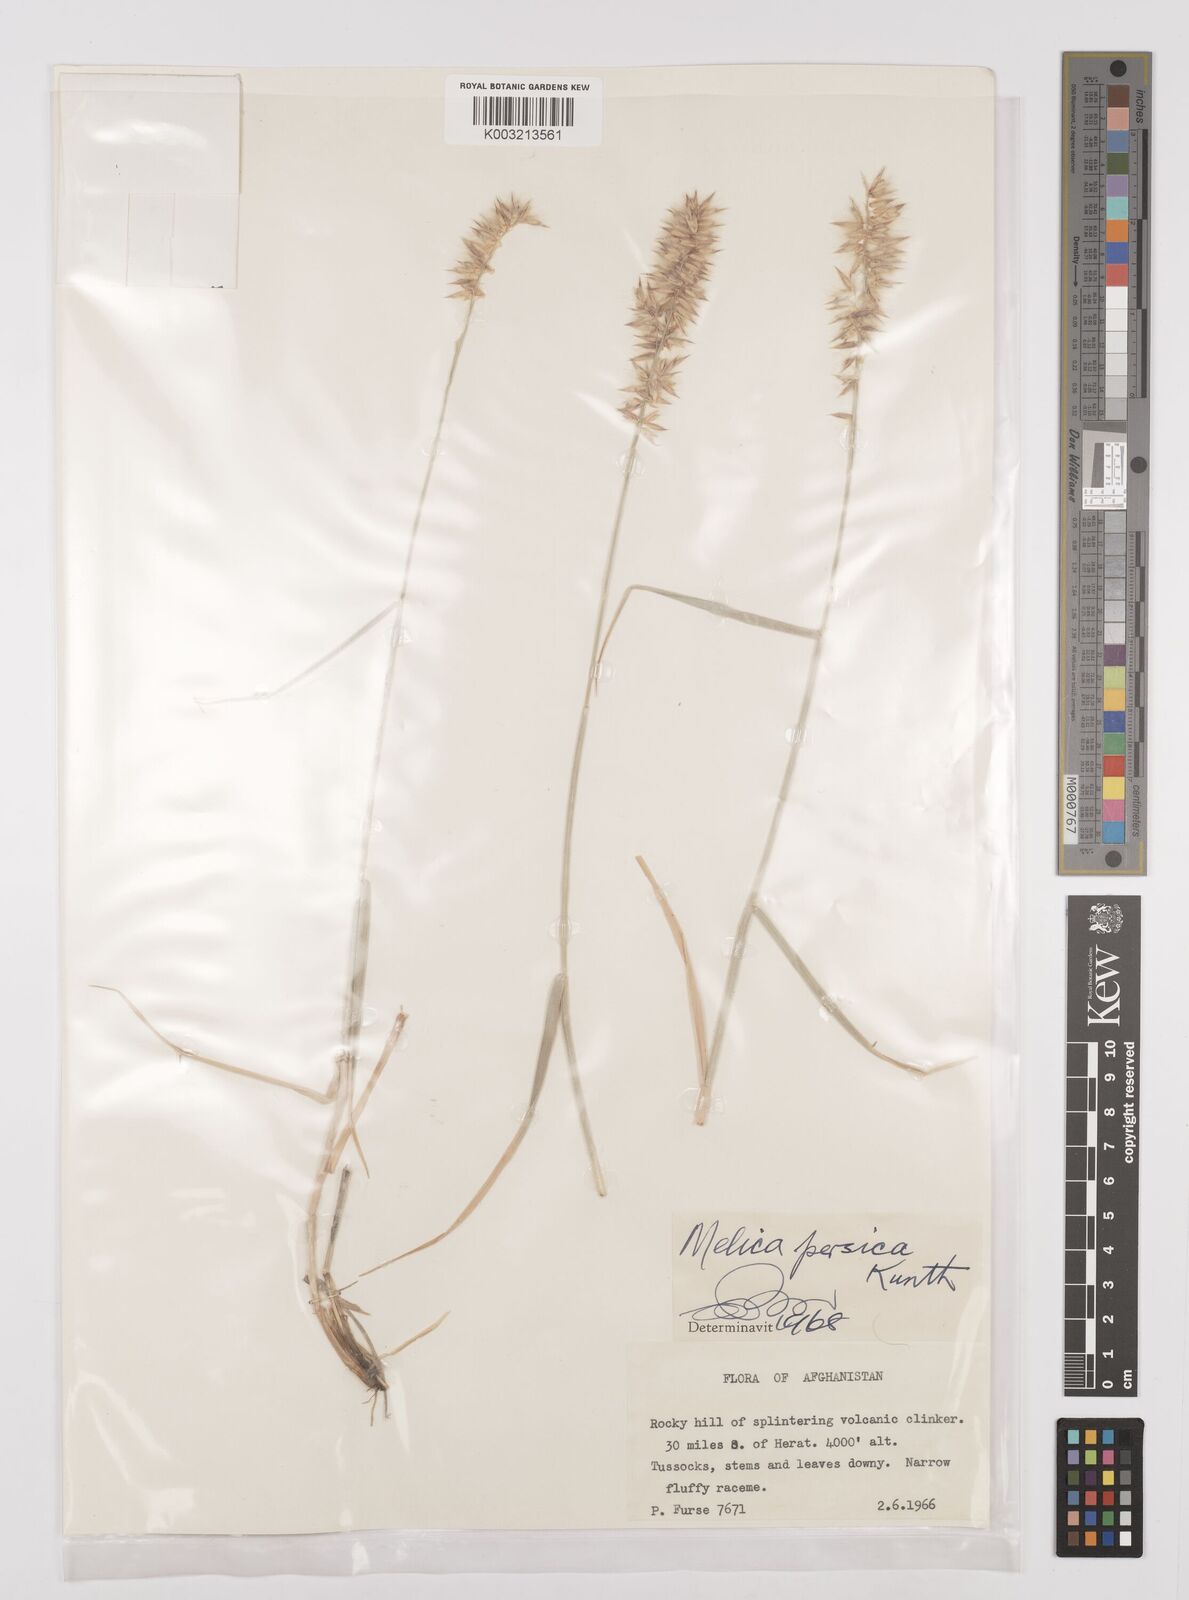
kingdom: Plantae
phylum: Tracheophyta
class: Liliopsida
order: Poales
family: Poaceae
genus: Melica
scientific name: Melica persica
